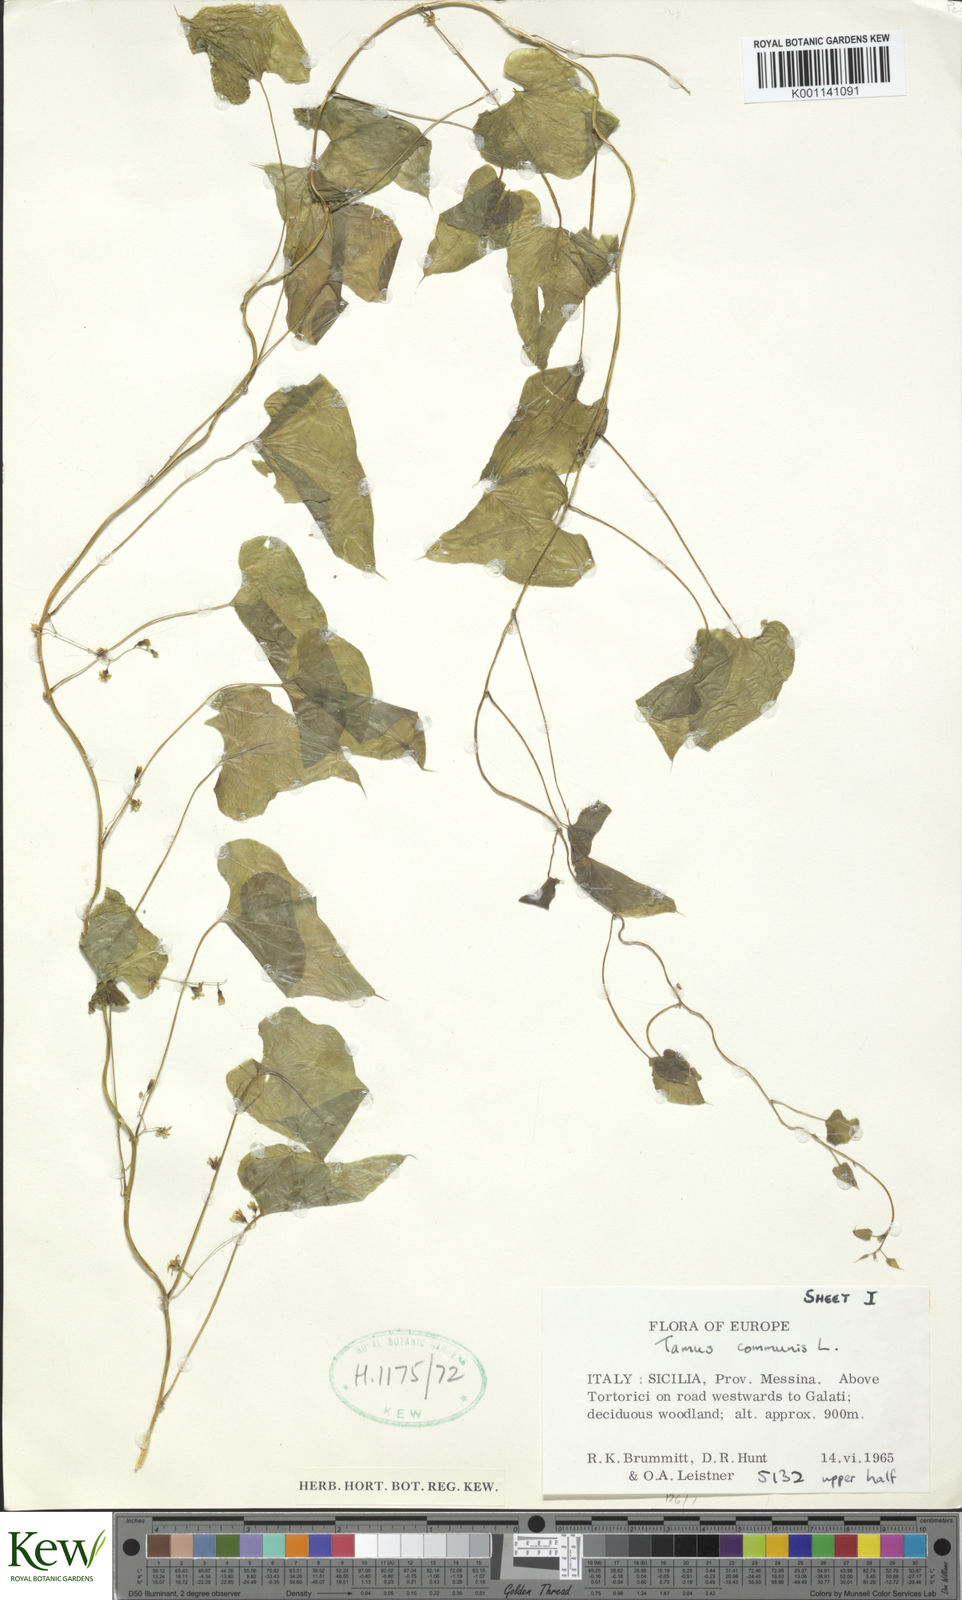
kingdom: Plantae
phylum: Tracheophyta
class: Liliopsida
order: Dioscoreales
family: Dioscoreaceae
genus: Dioscorea
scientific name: Dioscorea communis
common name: Black-bindweed
